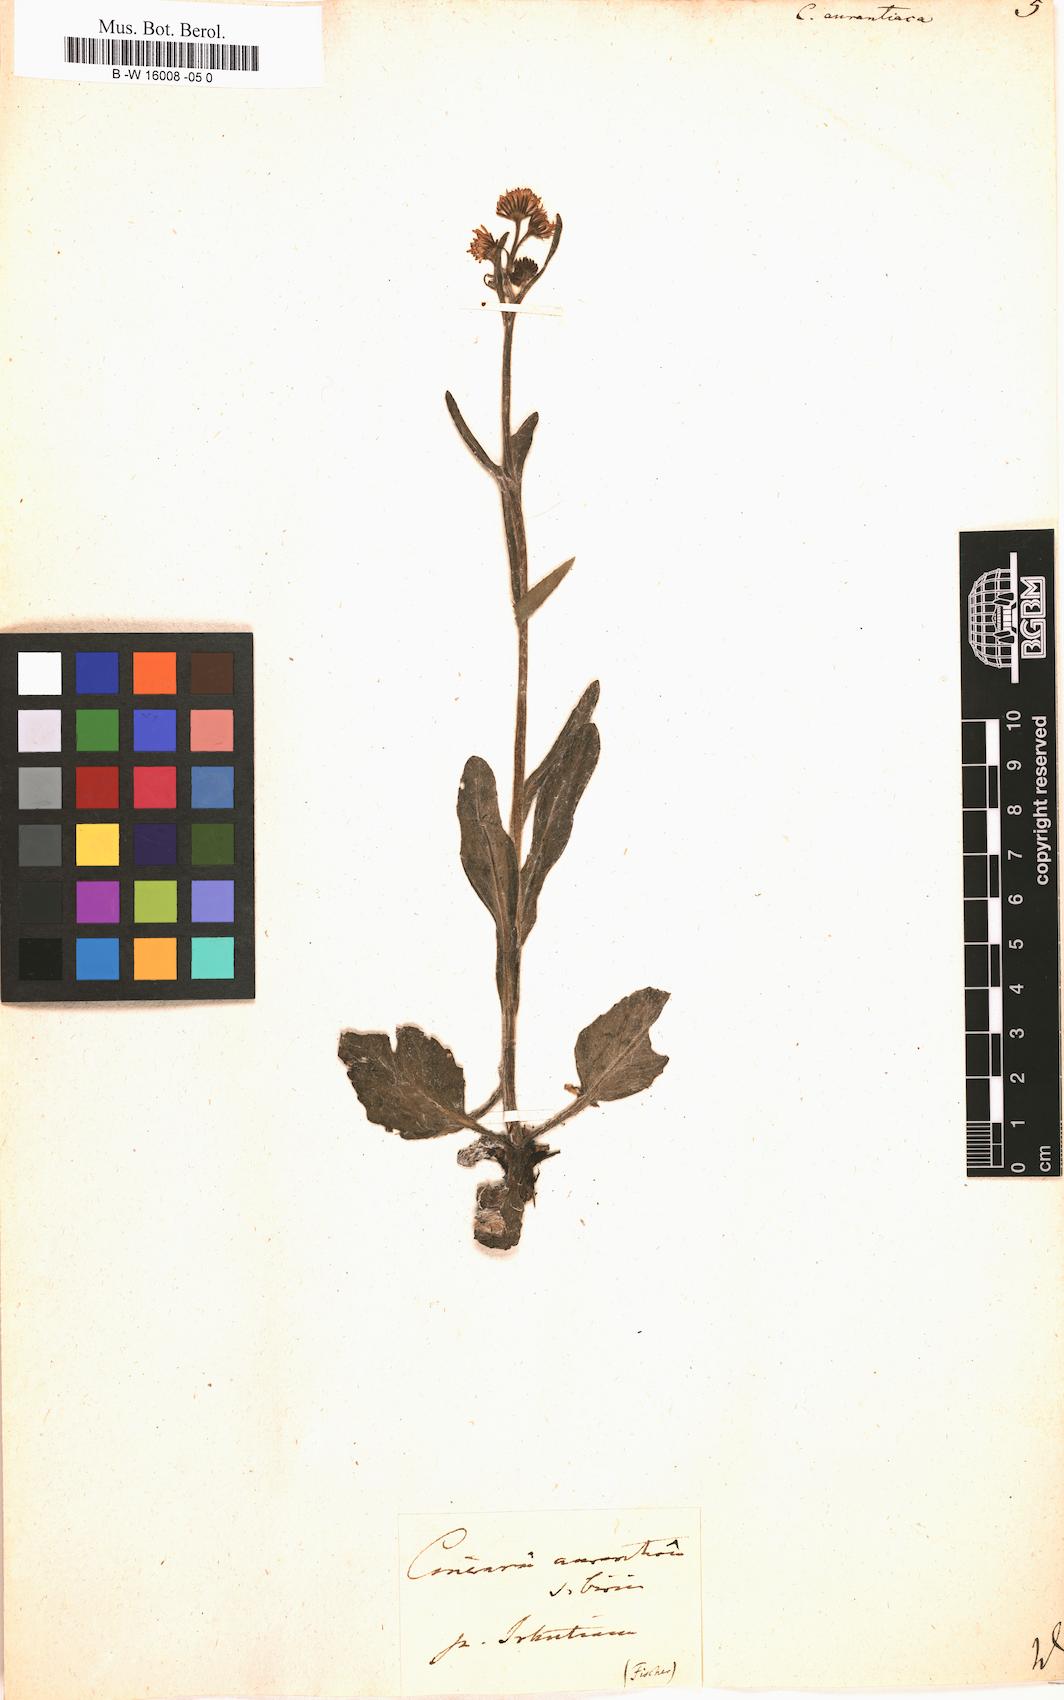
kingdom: Plantae
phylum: Tracheophyta
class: Magnoliopsida
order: Asterales
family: Asteraceae
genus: Tephroseris
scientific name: Tephroseris aurantiaca
